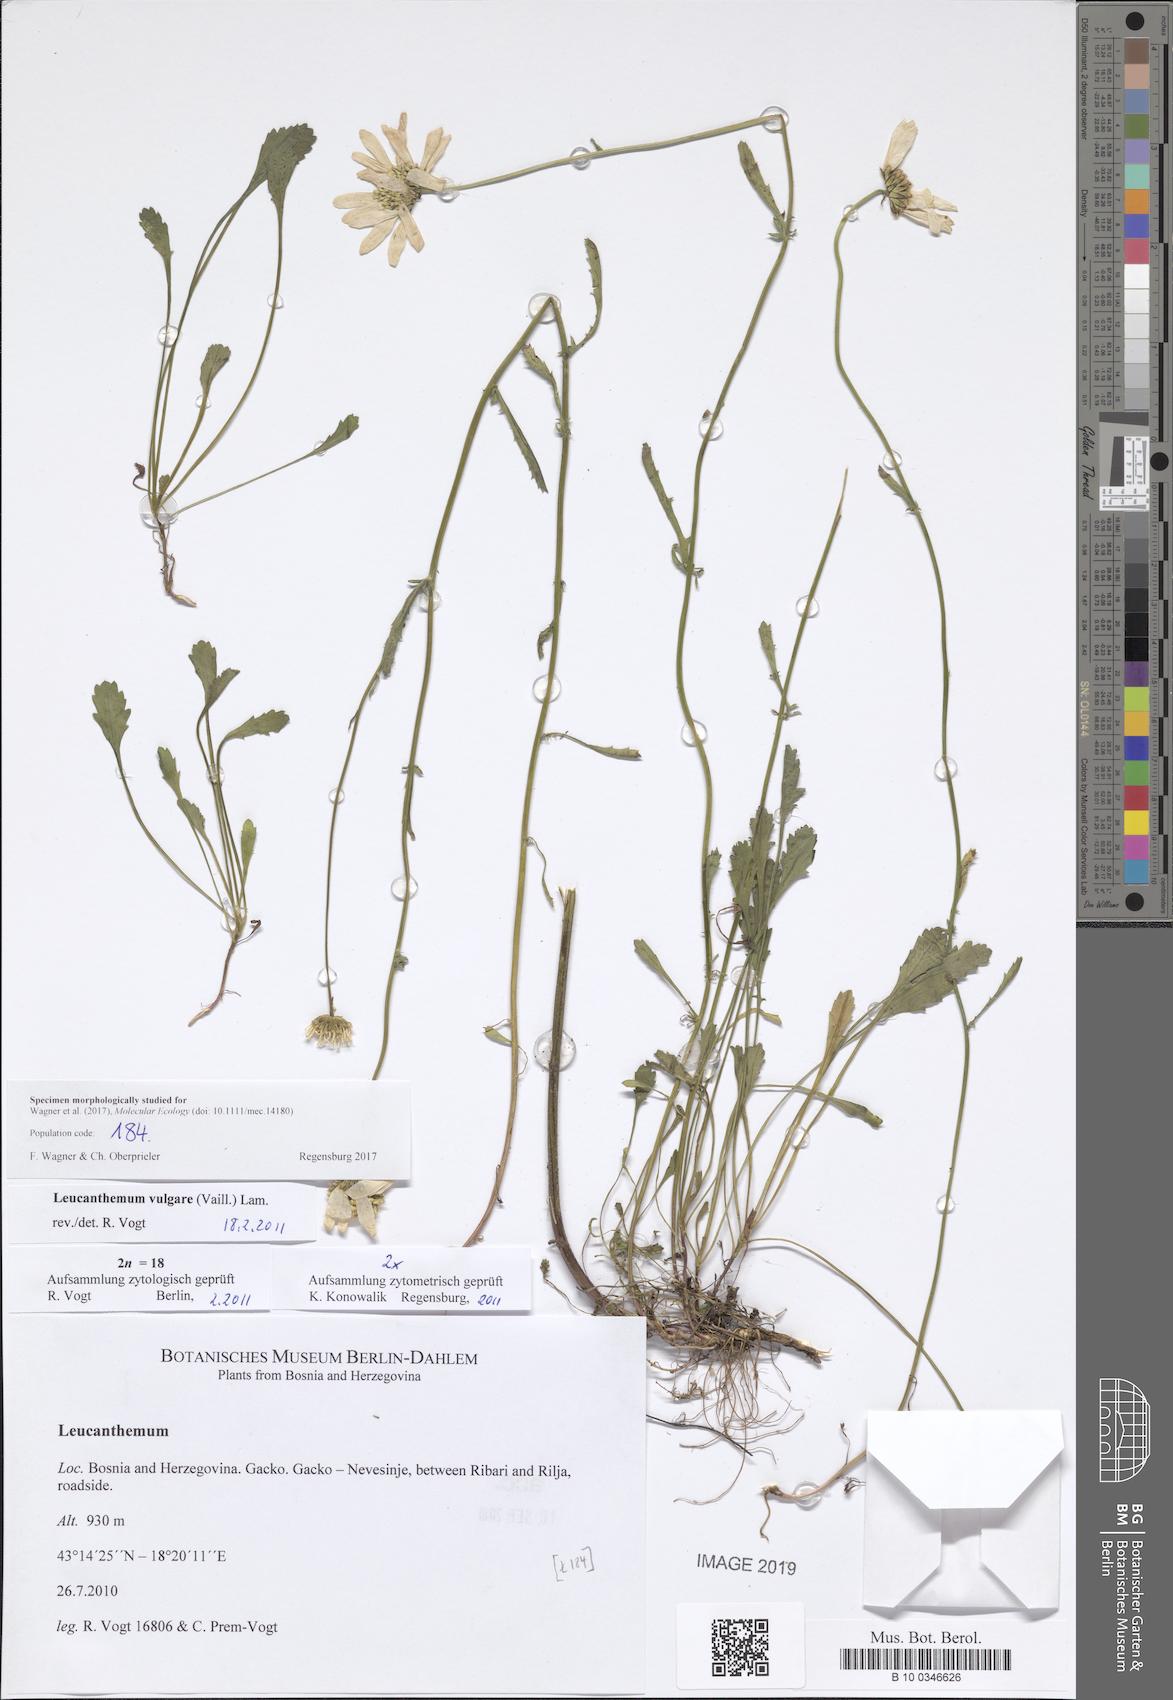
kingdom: Plantae
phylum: Tracheophyta
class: Magnoliopsida
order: Asterales
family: Asteraceae
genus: Leucanthemum
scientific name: Leucanthemum vulgare
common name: Oxeye daisy
